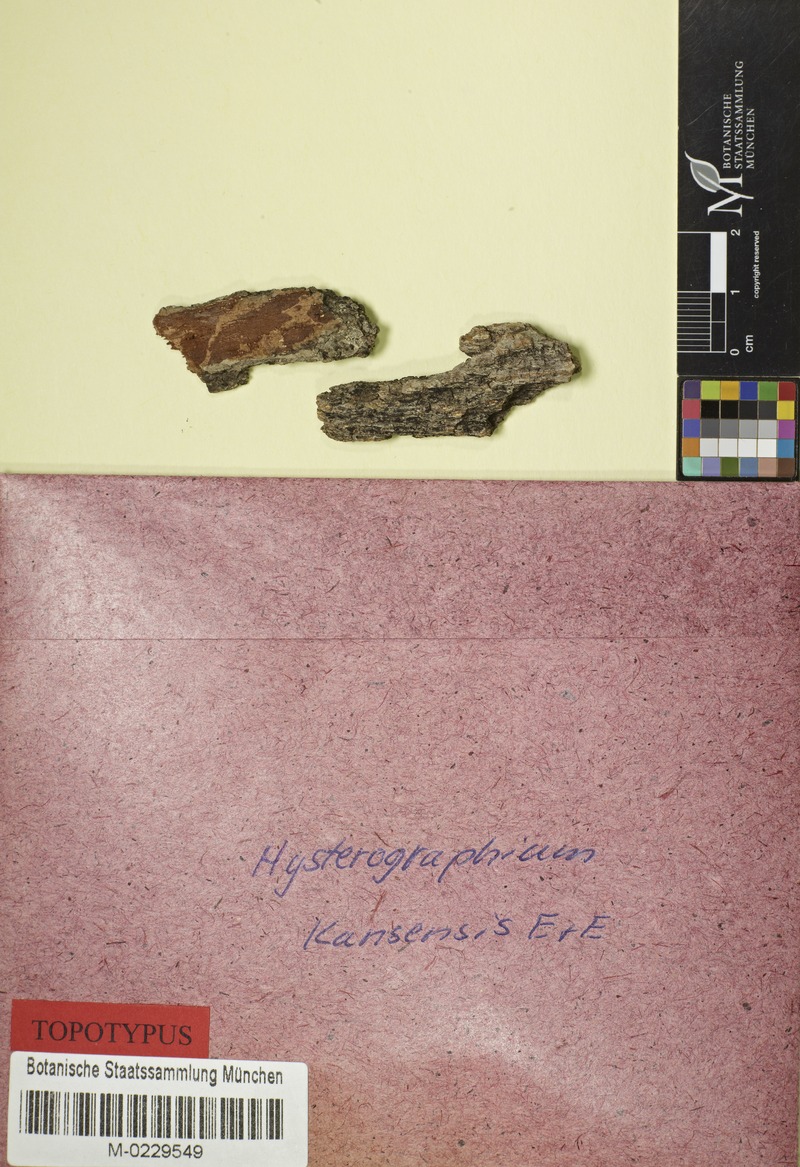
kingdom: Fungi
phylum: Ascomycota
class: Dothideomycetes
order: Hysteriales
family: Hysteriaceae
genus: Gloniopsis
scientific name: Gloniopsis subrugosa
